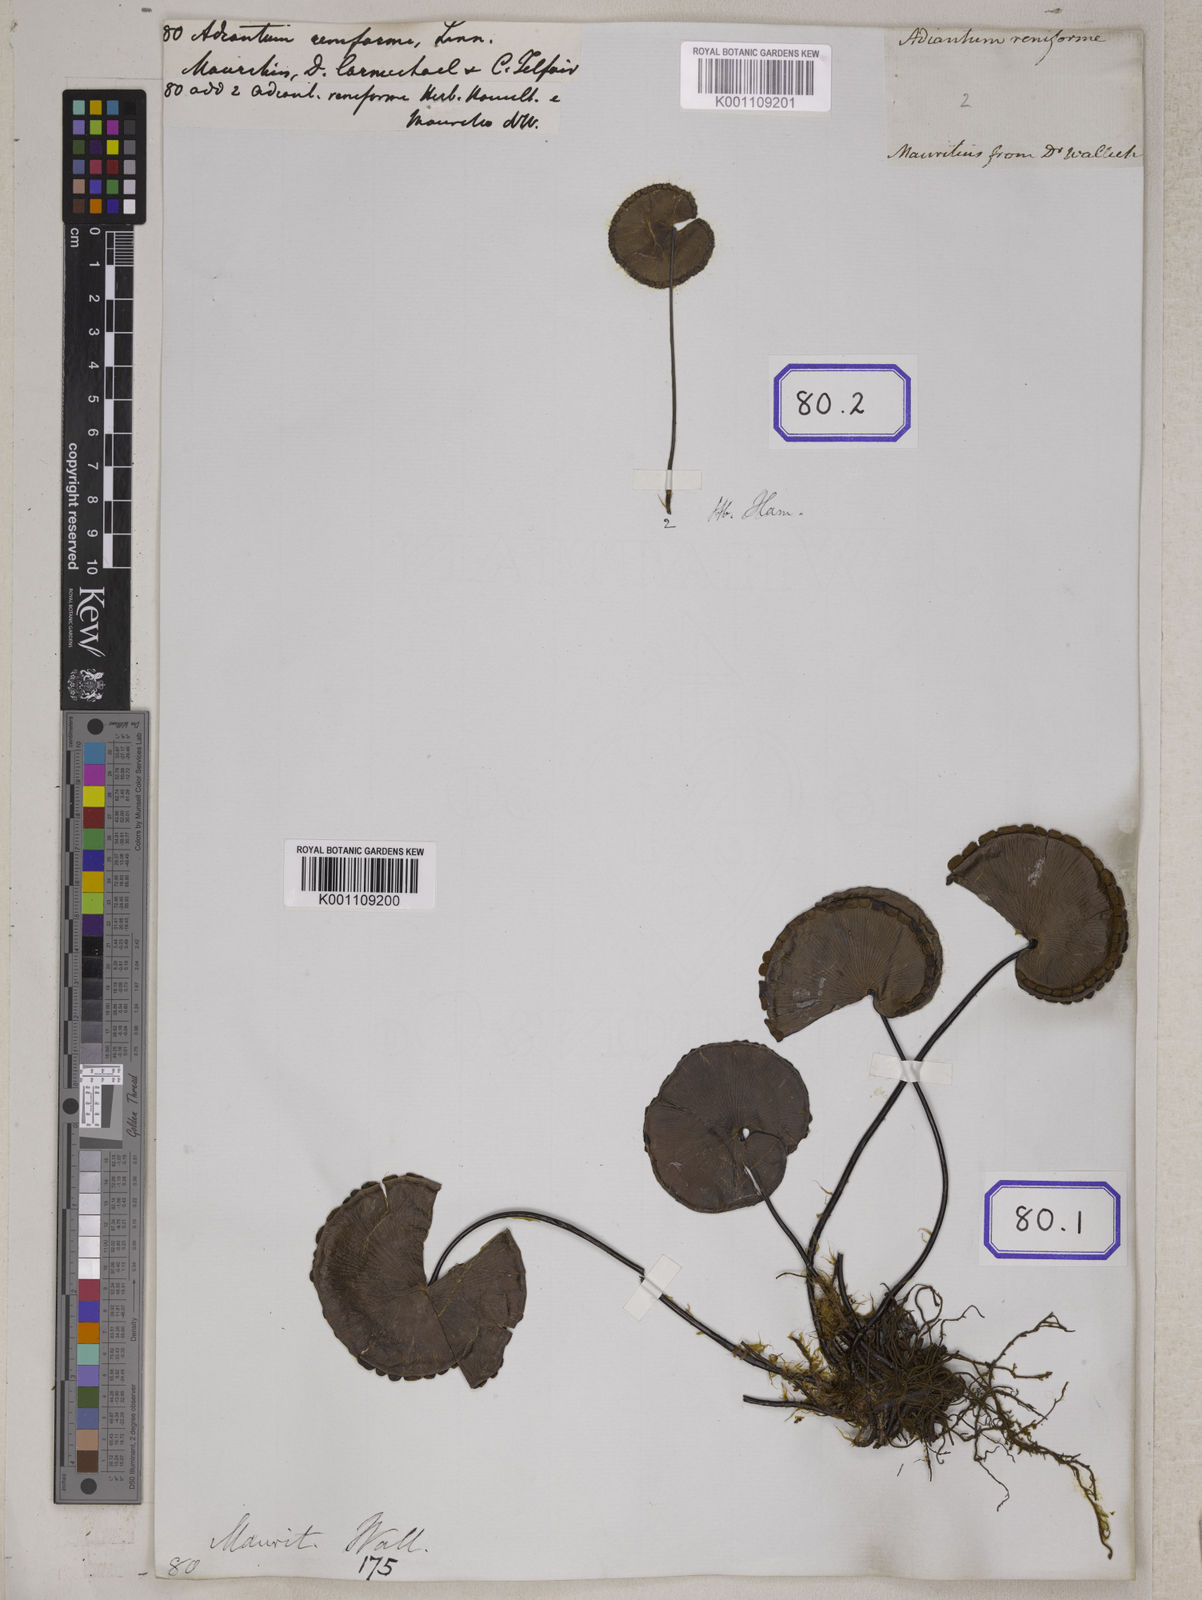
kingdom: Plantae
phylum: Tracheophyta
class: Polypodiopsida
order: Polypodiales
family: Pteridaceae
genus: Adiantum
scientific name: Adiantum reniforme
